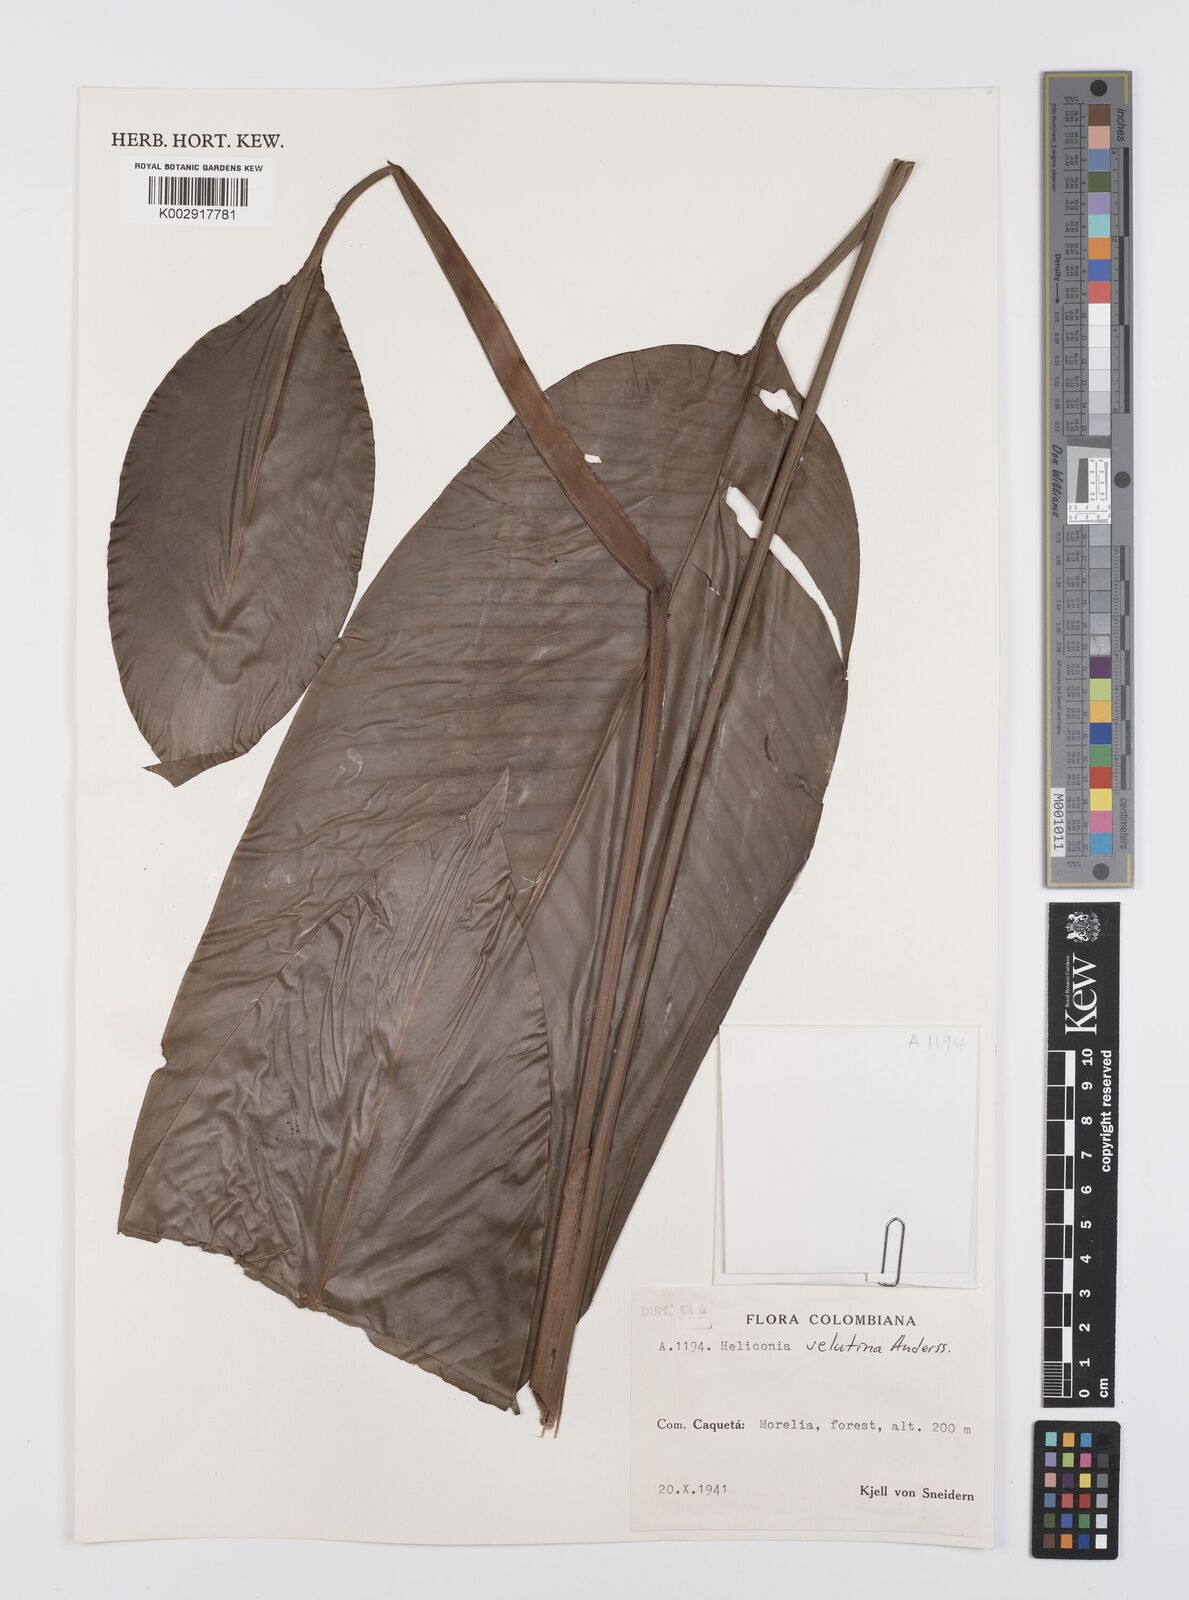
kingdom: Plantae
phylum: Tracheophyta
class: Liliopsida
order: Zingiberales
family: Heliconiaceae
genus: Heliconia
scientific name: Heliconia velutina
